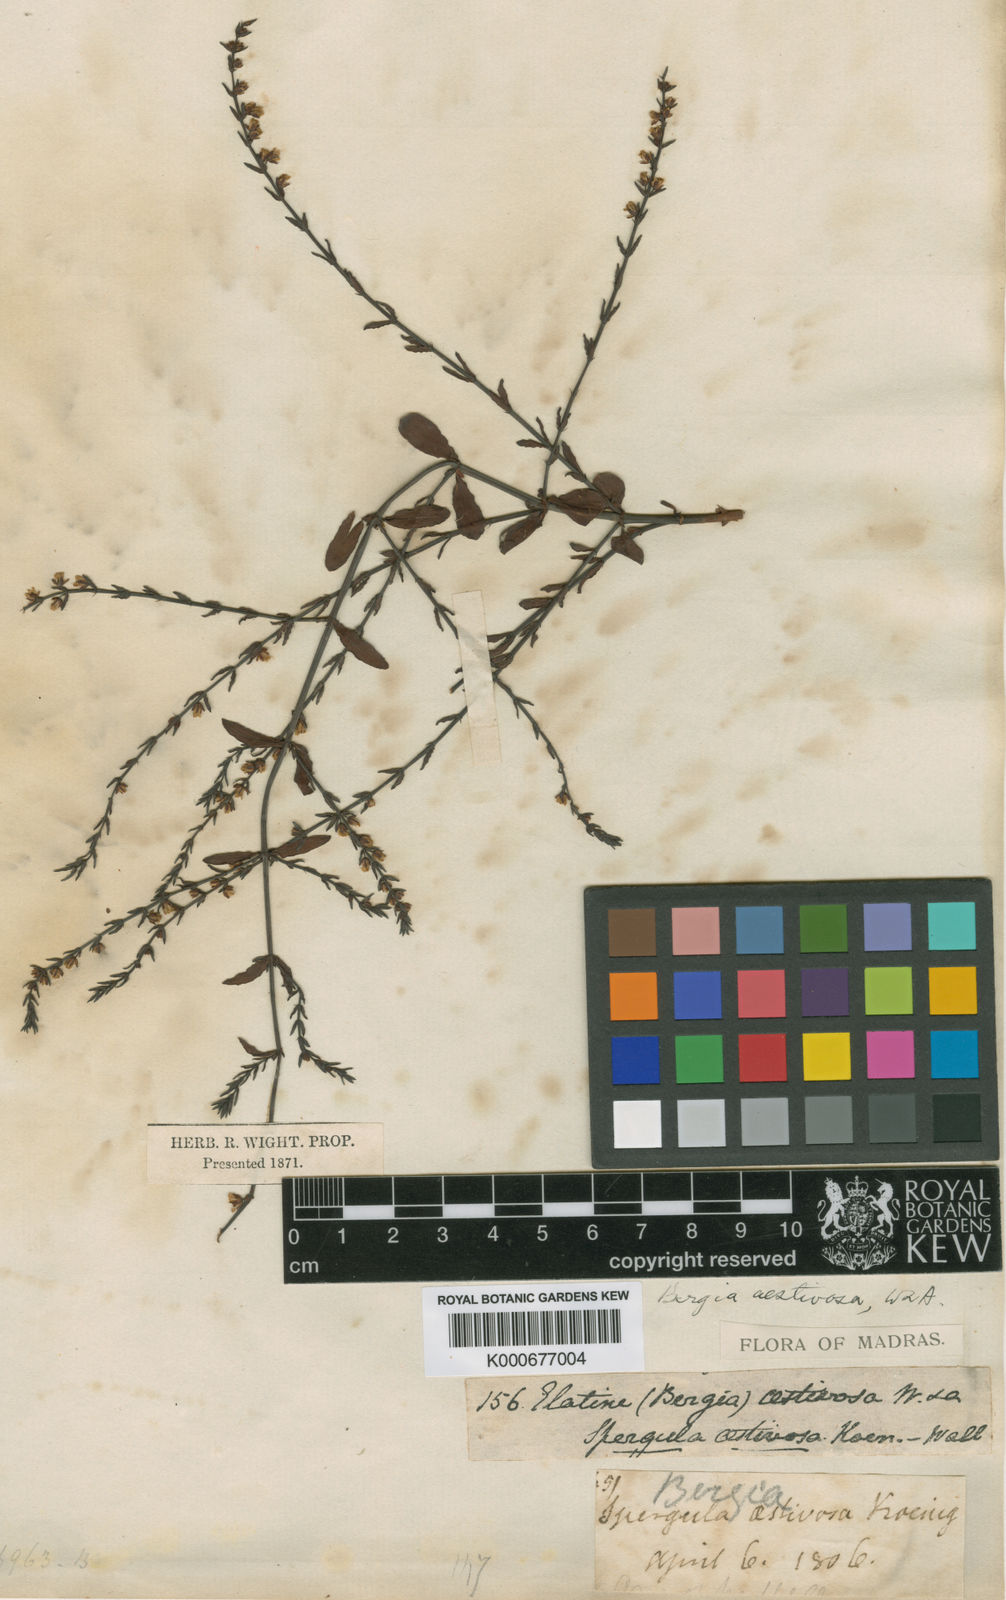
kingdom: Plantae
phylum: Tracheophyta
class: Magnoliopsida
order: Malpighiales
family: Elatinaceae
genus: Bergia
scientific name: Bergia aestivosa
